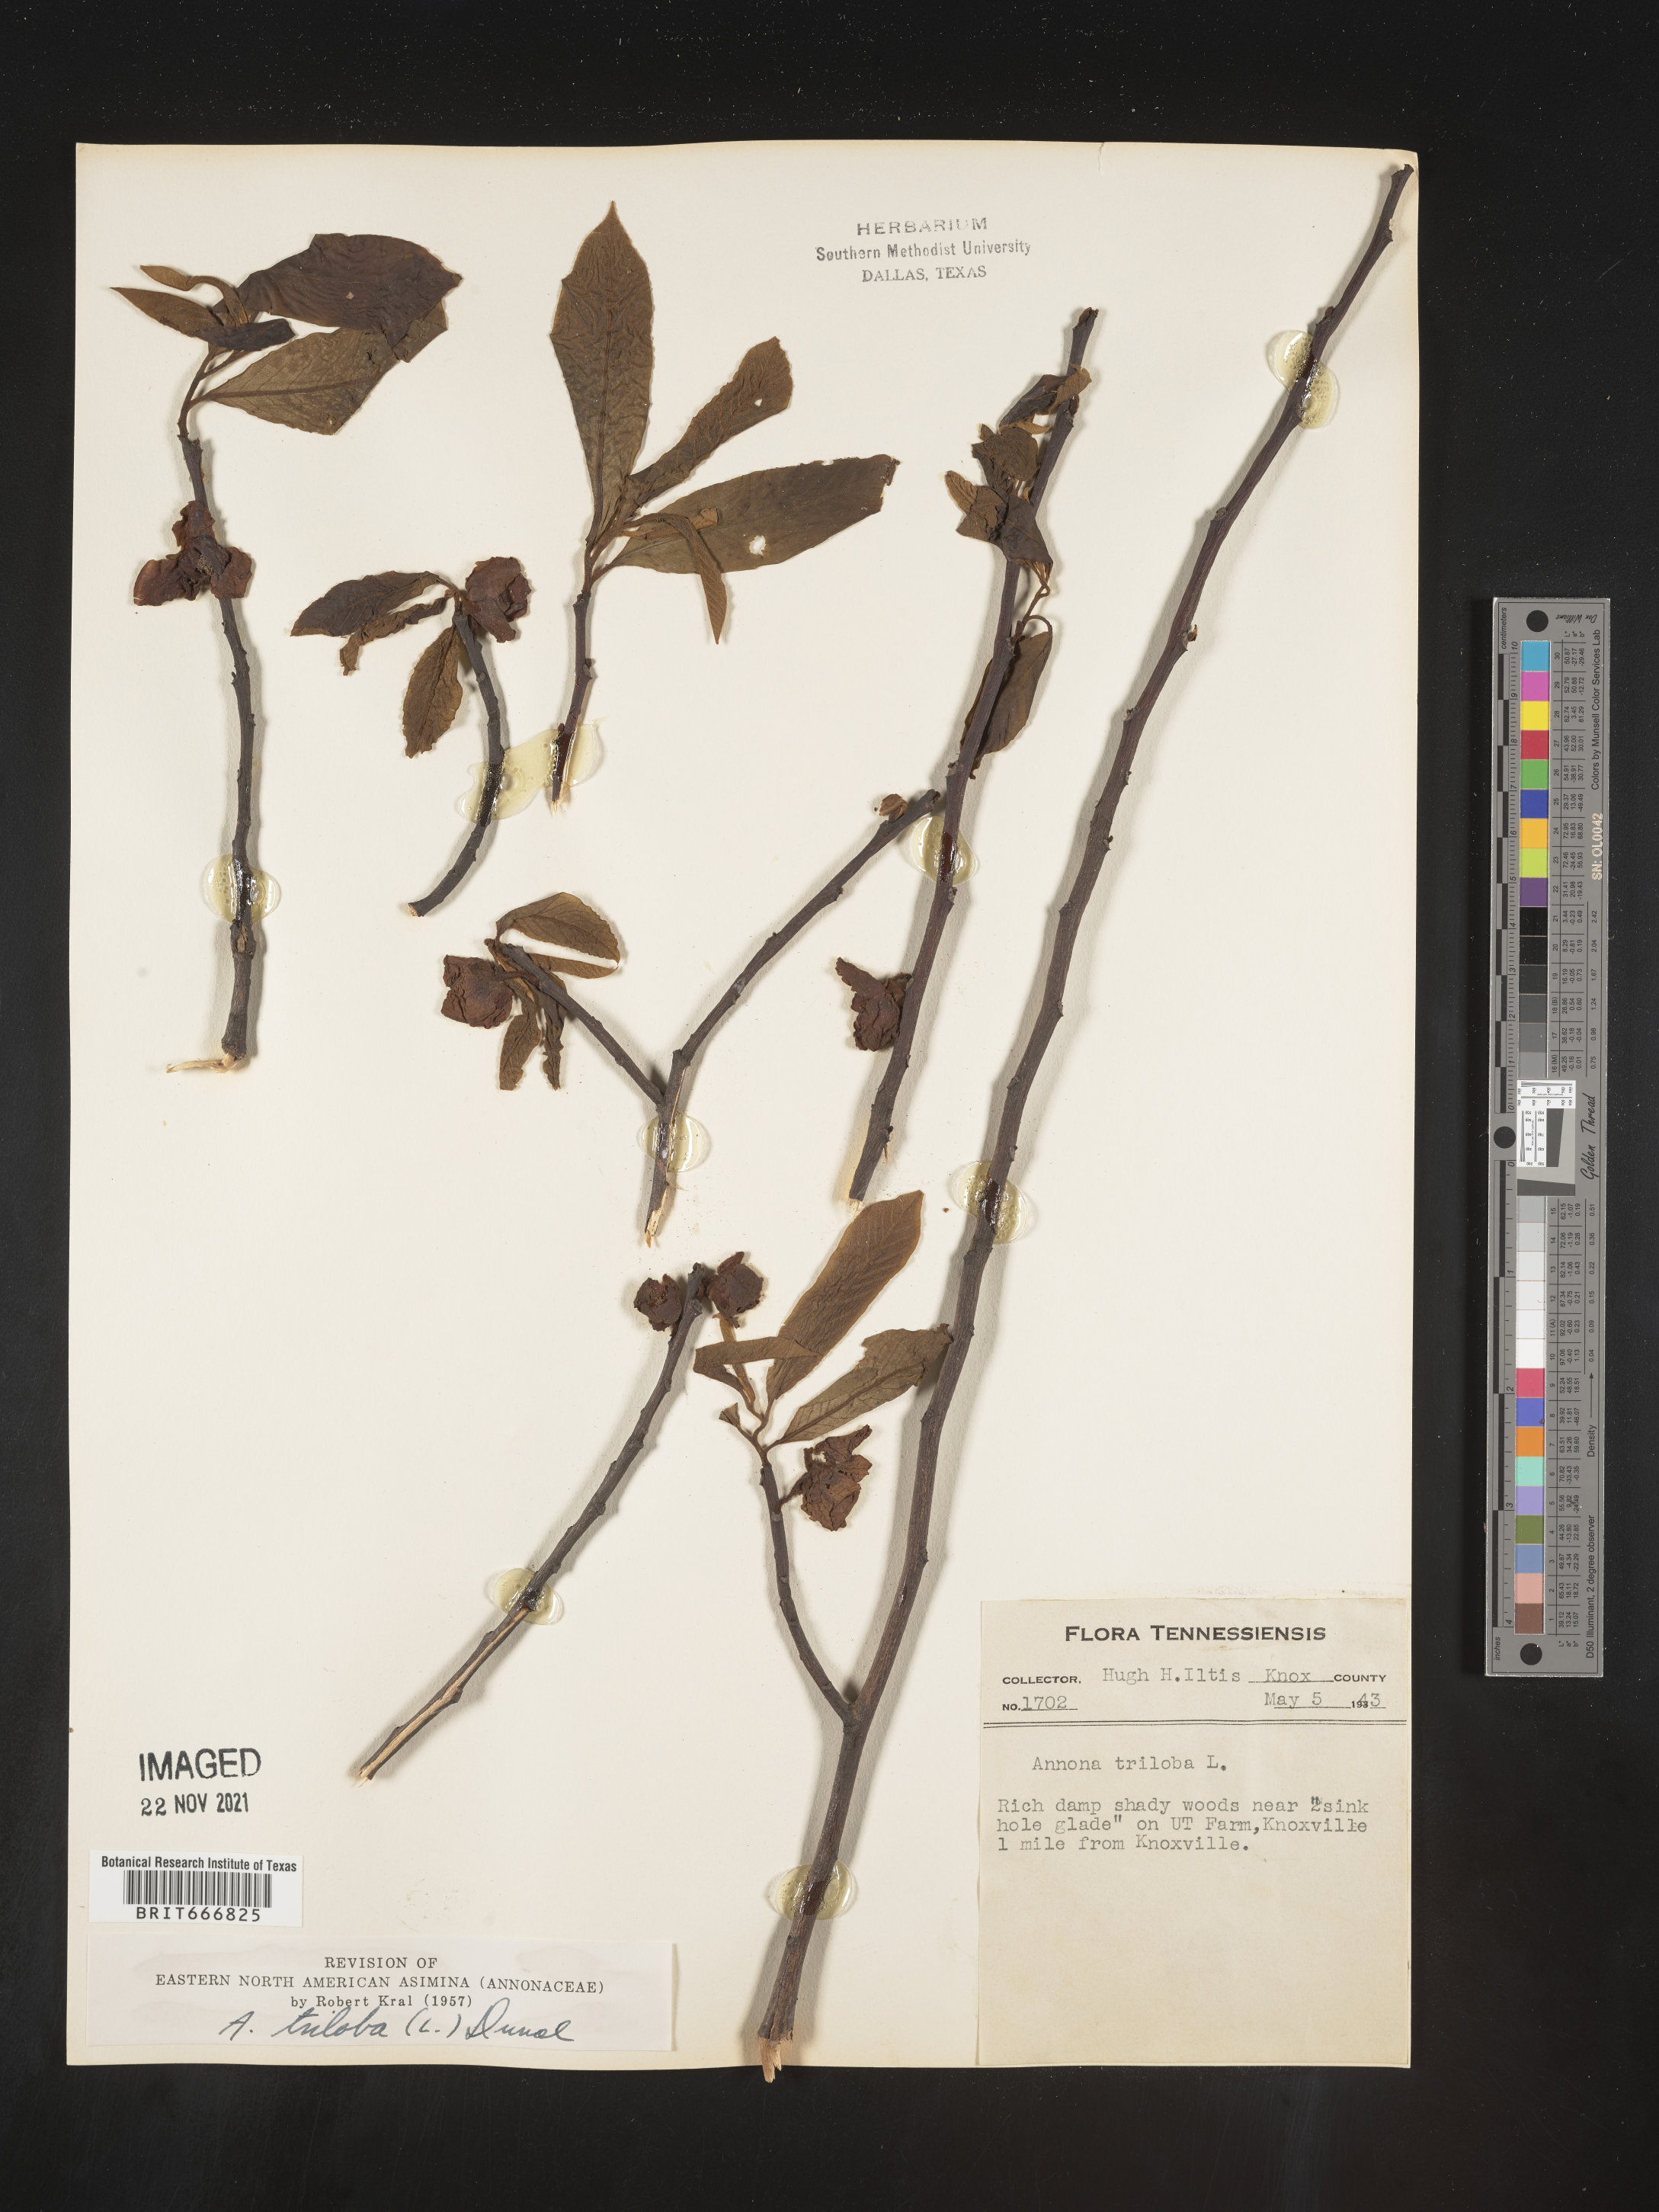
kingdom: Plantae
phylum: Tracheophyta
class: Magnoliopsida
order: Magnoliales
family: Annonaceae
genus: Asimina
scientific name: Asimina triloba
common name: Dog-banana
